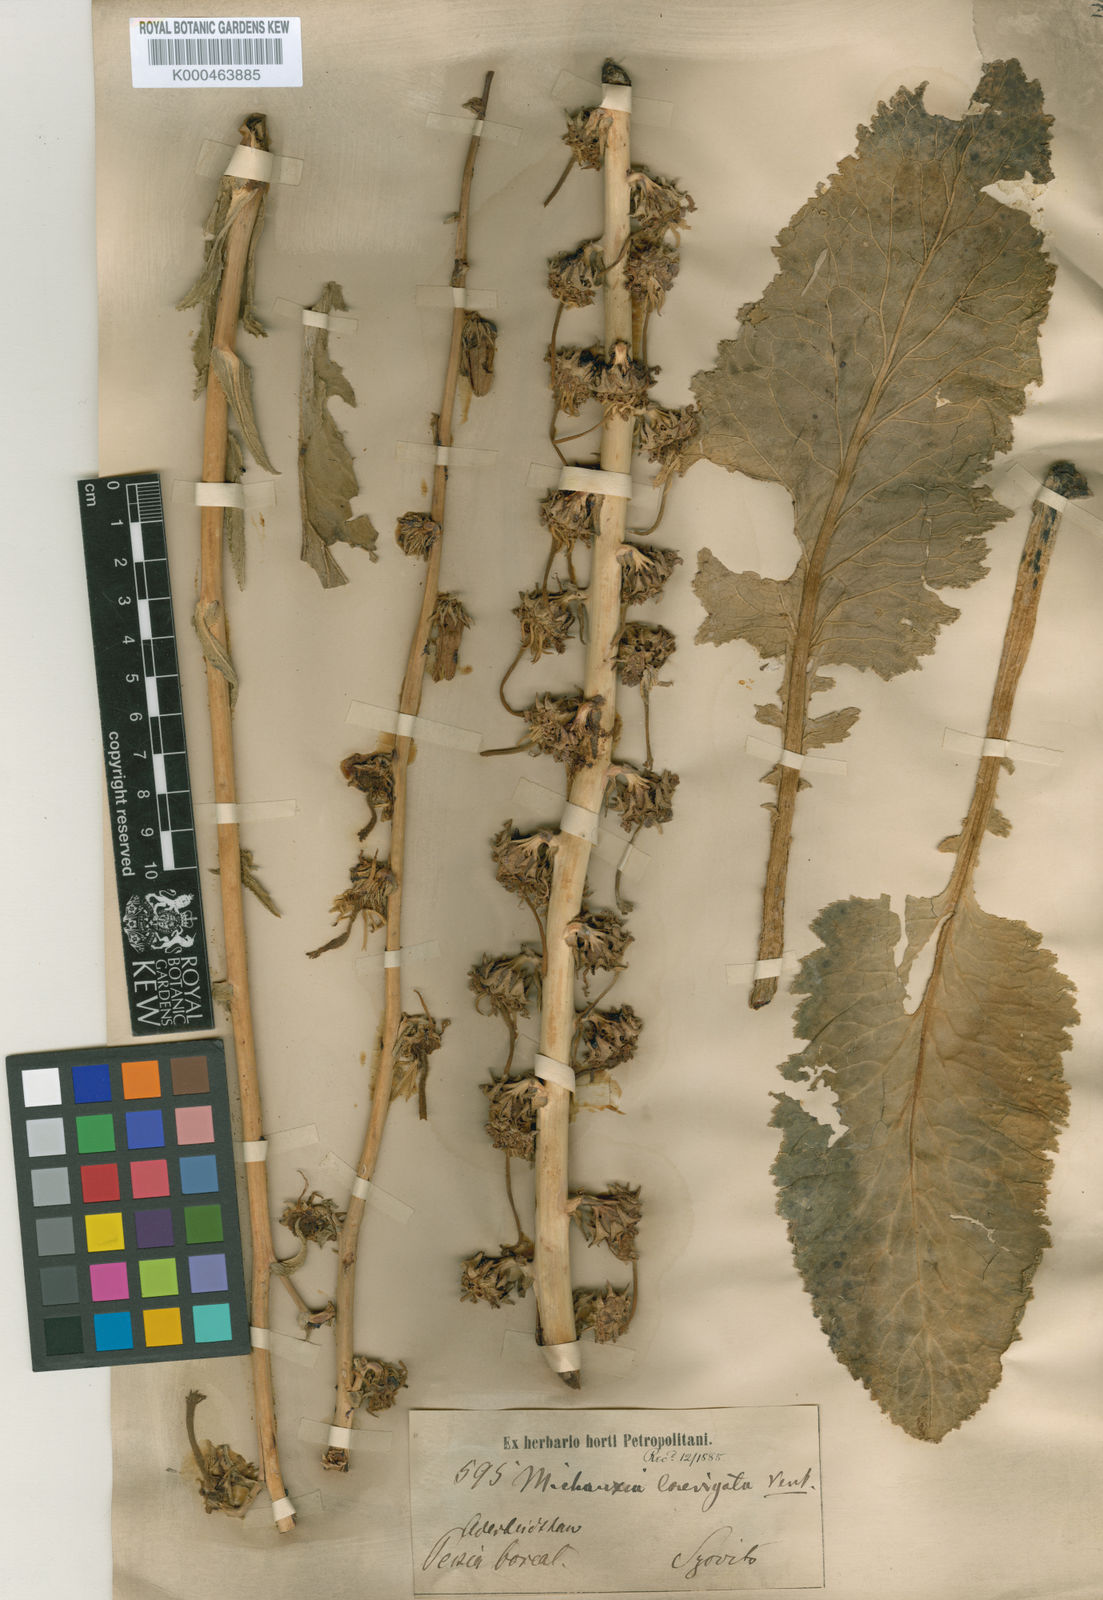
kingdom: Plantae
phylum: Tracheophyta
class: Magnoliopsida
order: Asterales
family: Campanulaceae
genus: Michauxia
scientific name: Michauxia laevigata
